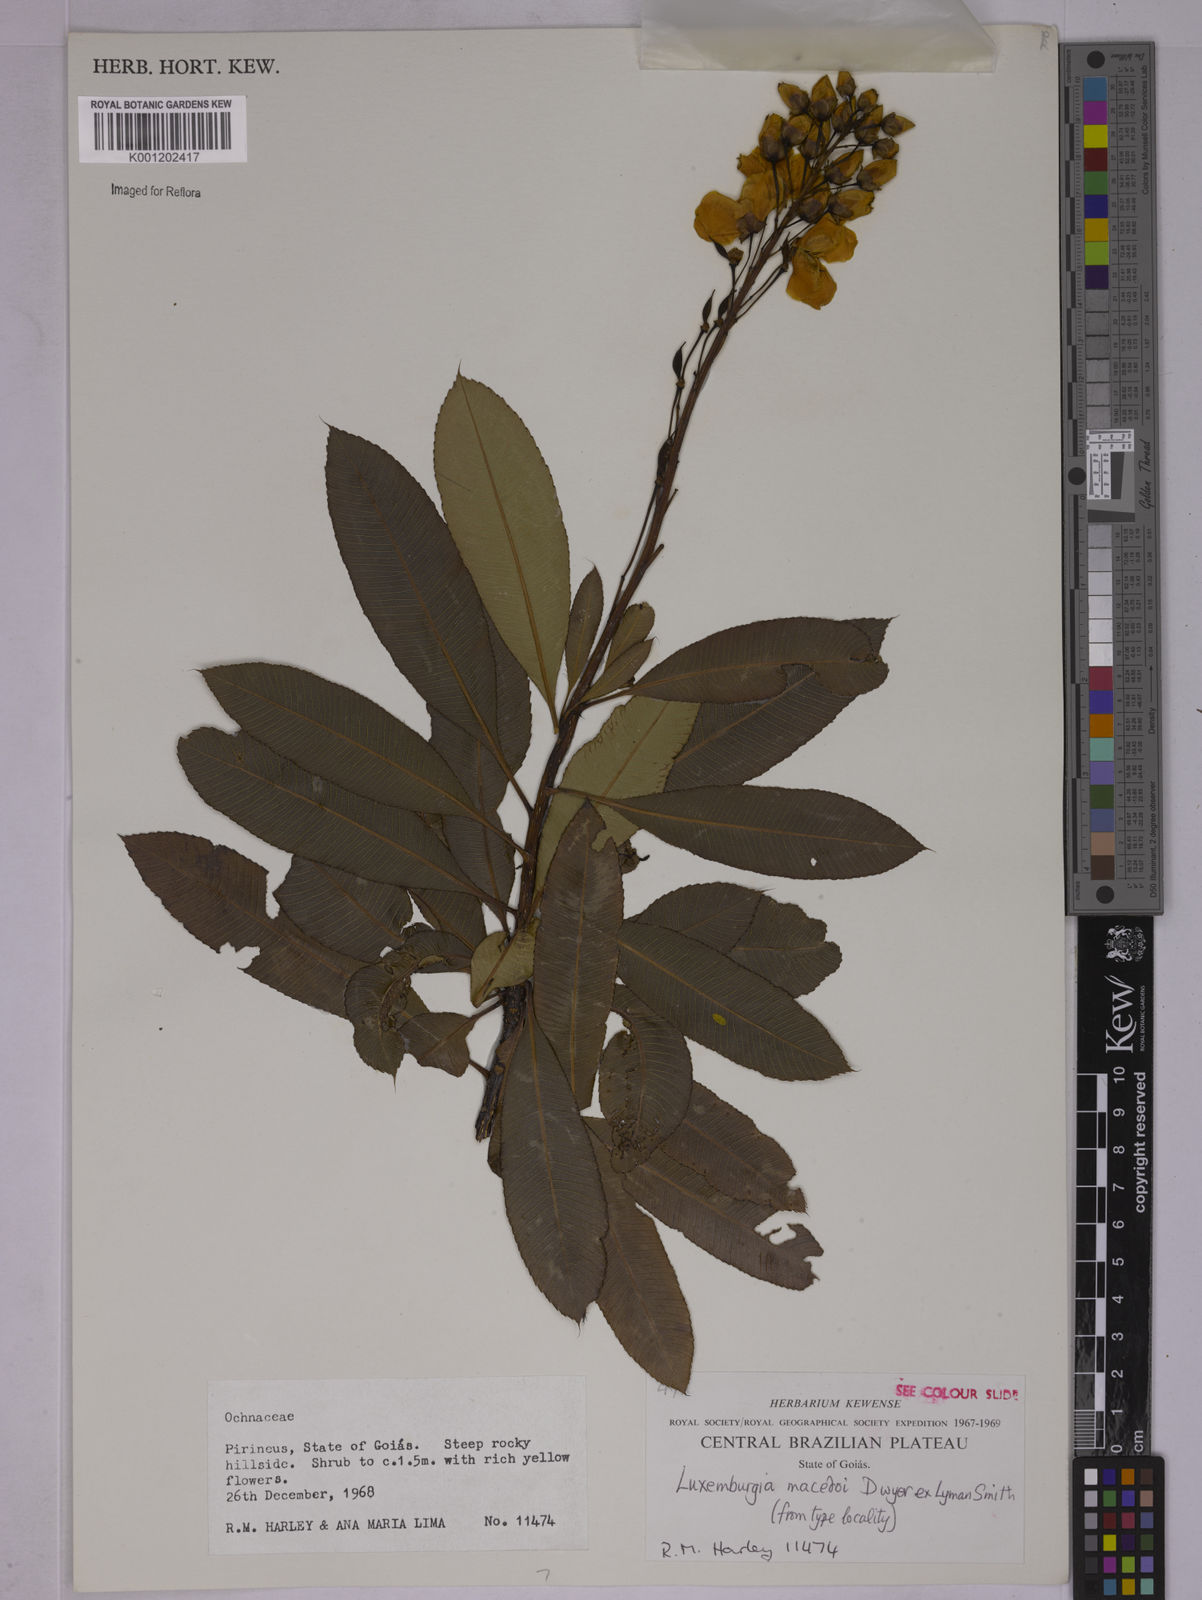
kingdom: Plantae
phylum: Tracheophyta
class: Magnoliopsida
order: Malpighiales
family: Ochnaceae
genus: Luxemburgia
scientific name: Luxemburgia macedoi
